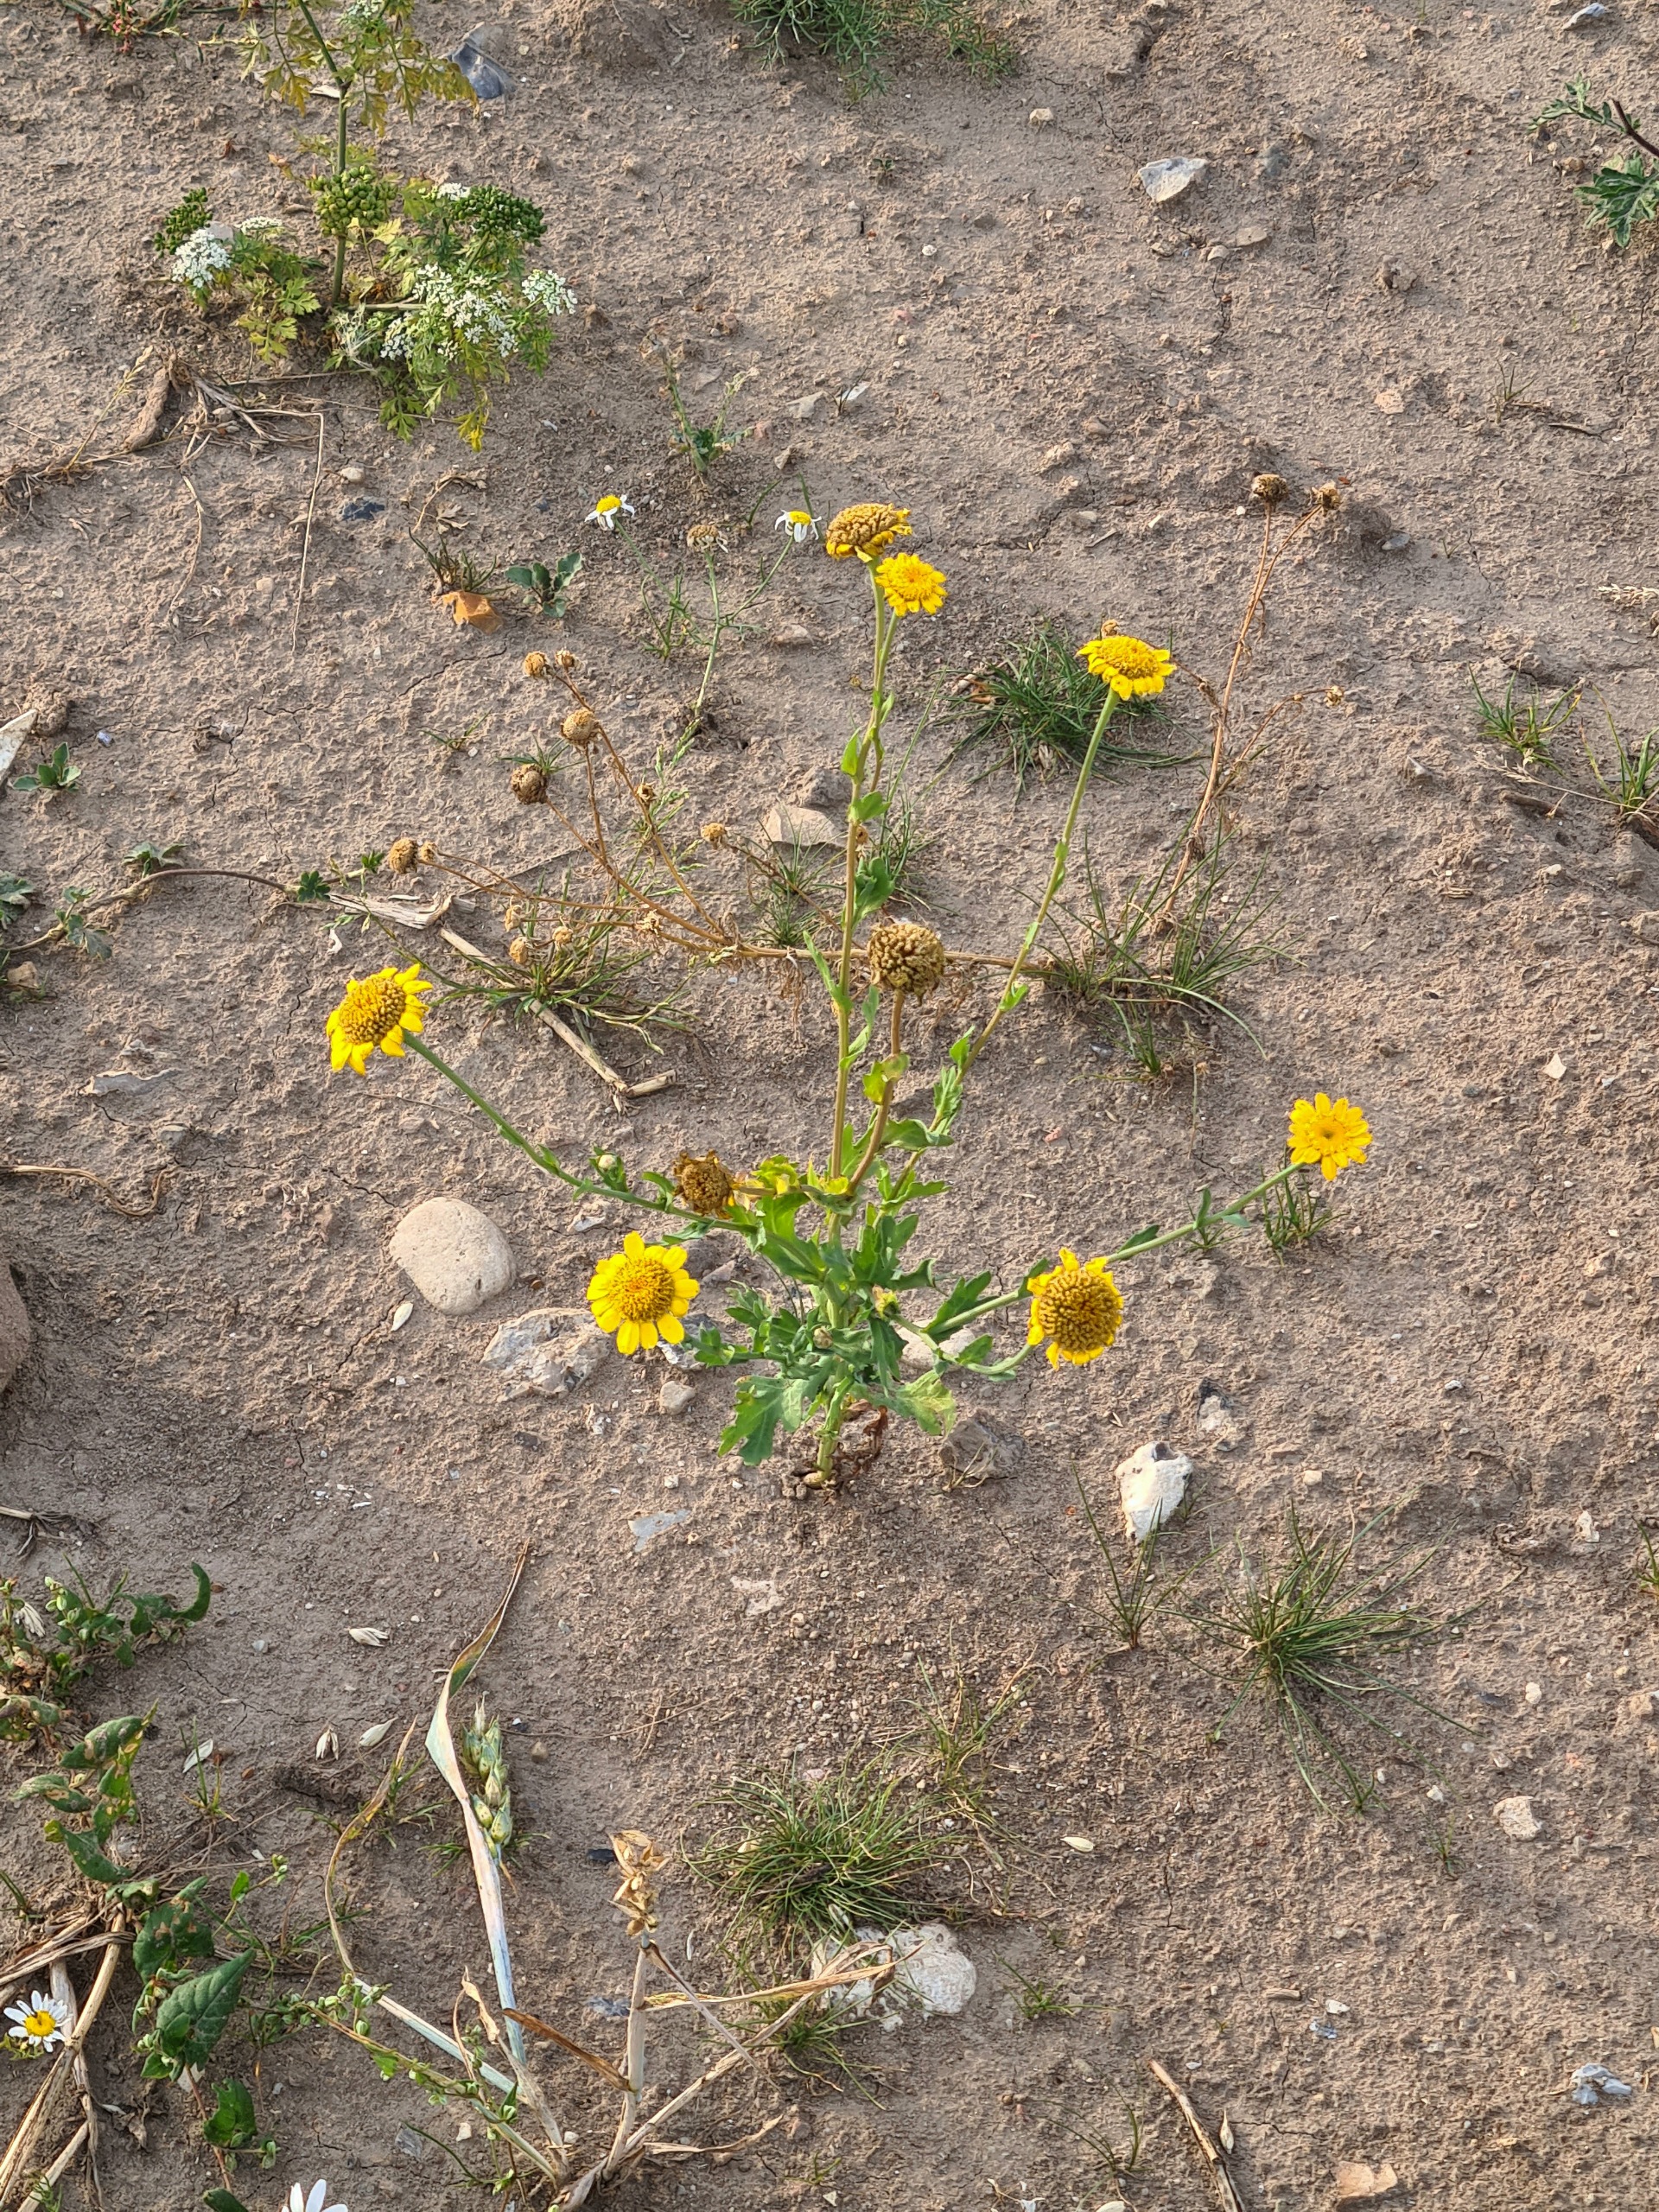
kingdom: Plantae
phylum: Tracheophyta
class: Magnoliopsida
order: Asterales
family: Asteraceae
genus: Glebionis
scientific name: Glebionis segetum
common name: Gul okseøje
